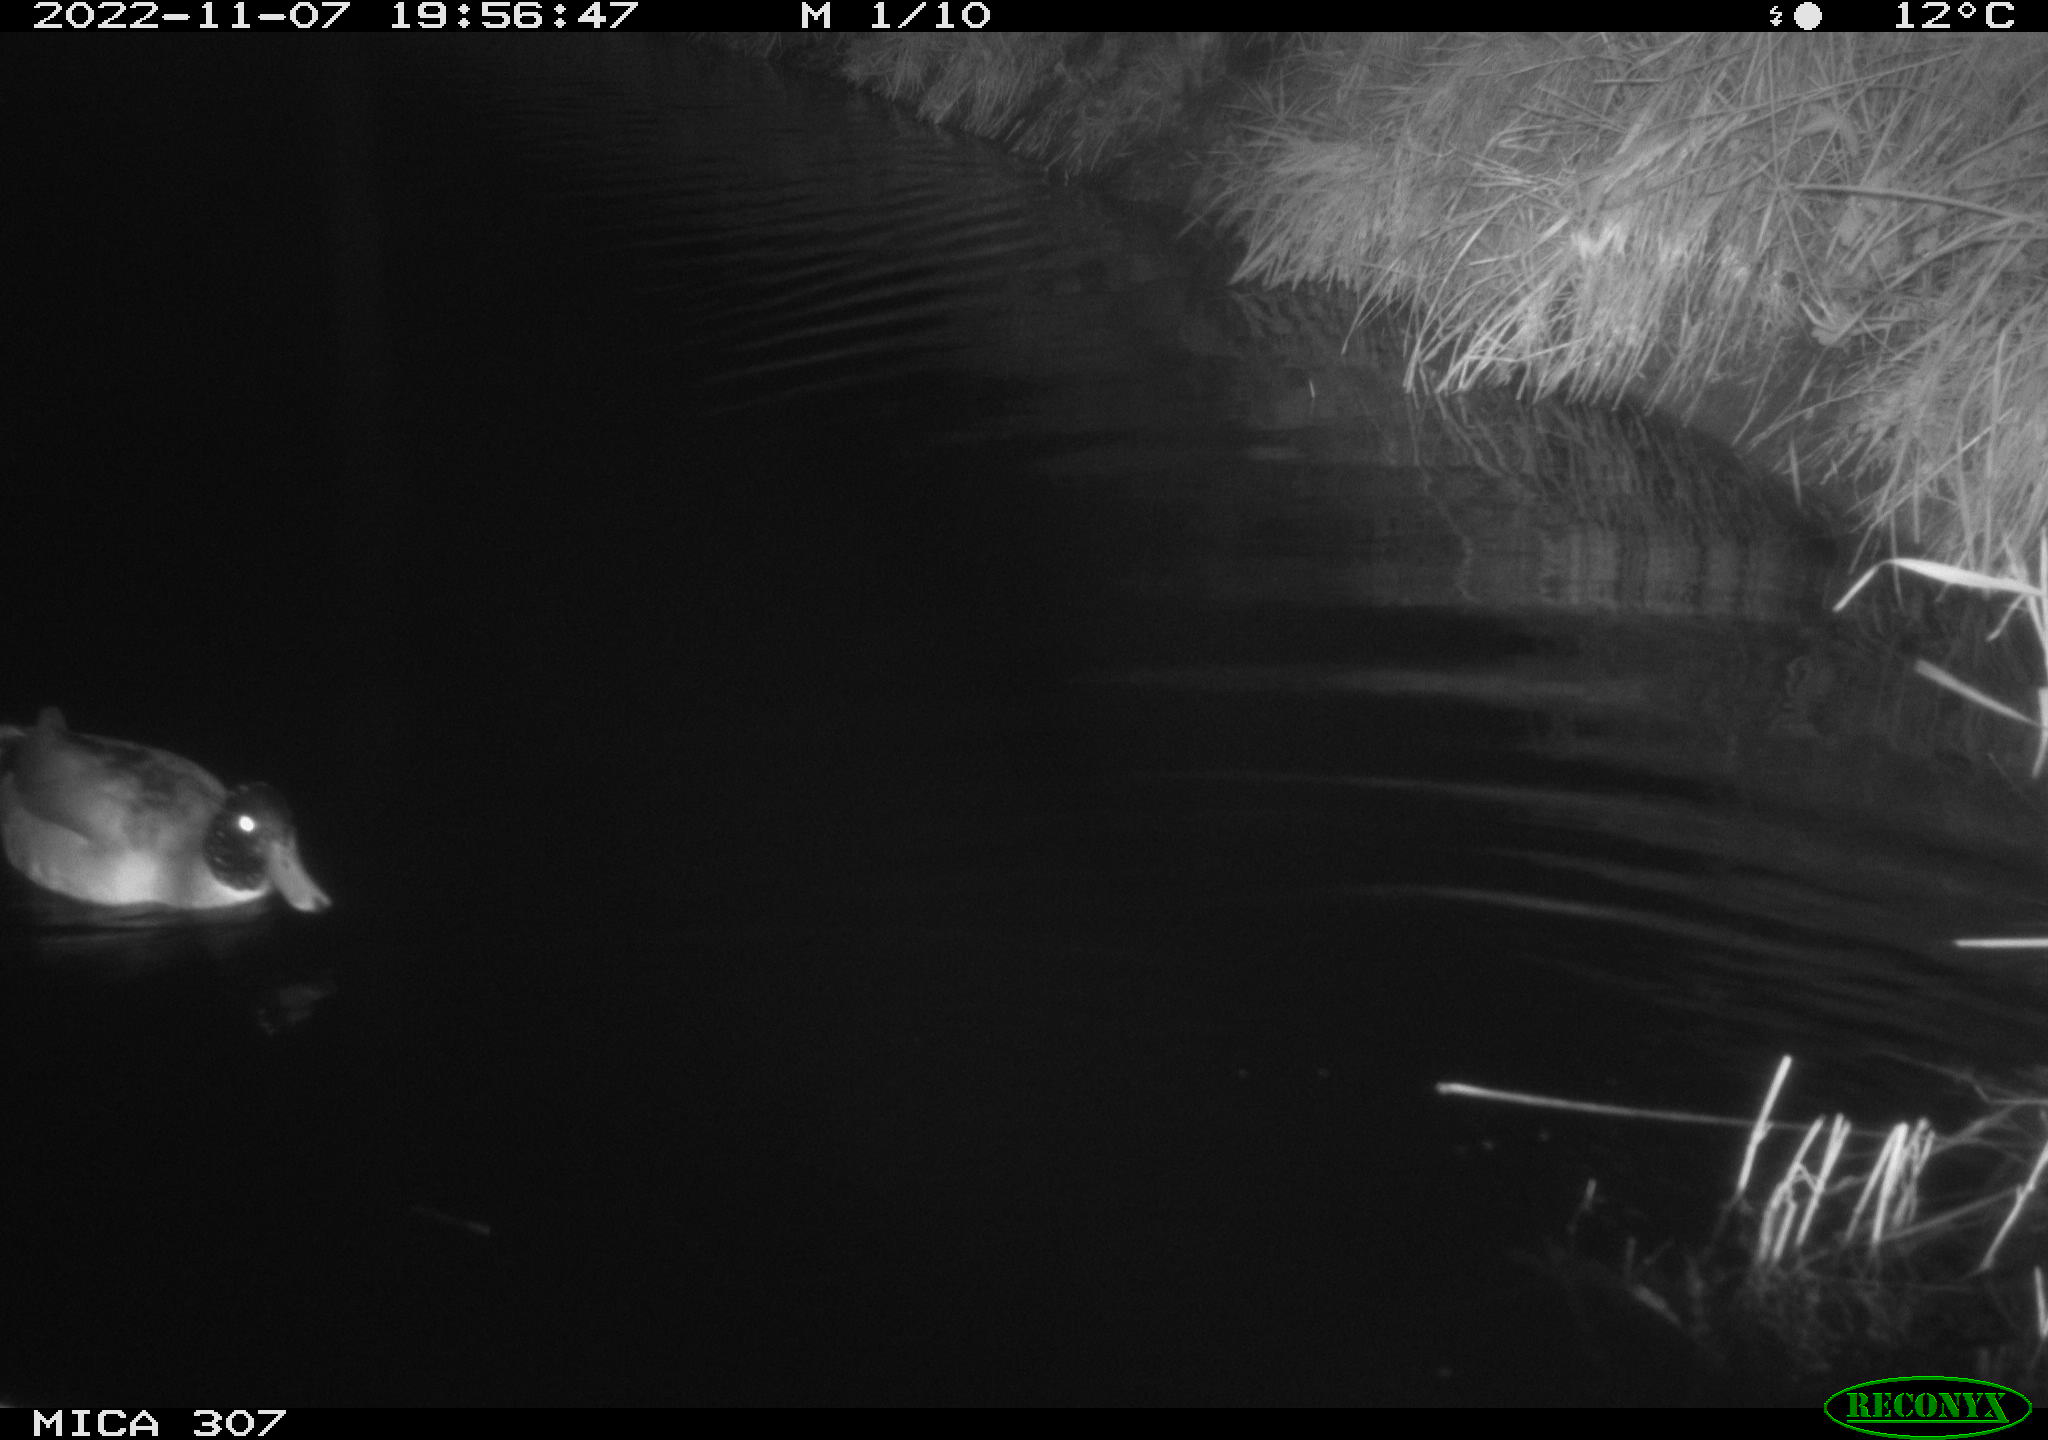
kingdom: Animalia
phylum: Chordata
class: Aves
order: Anseriformes
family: Anatidae
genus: Anas
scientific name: Anas
